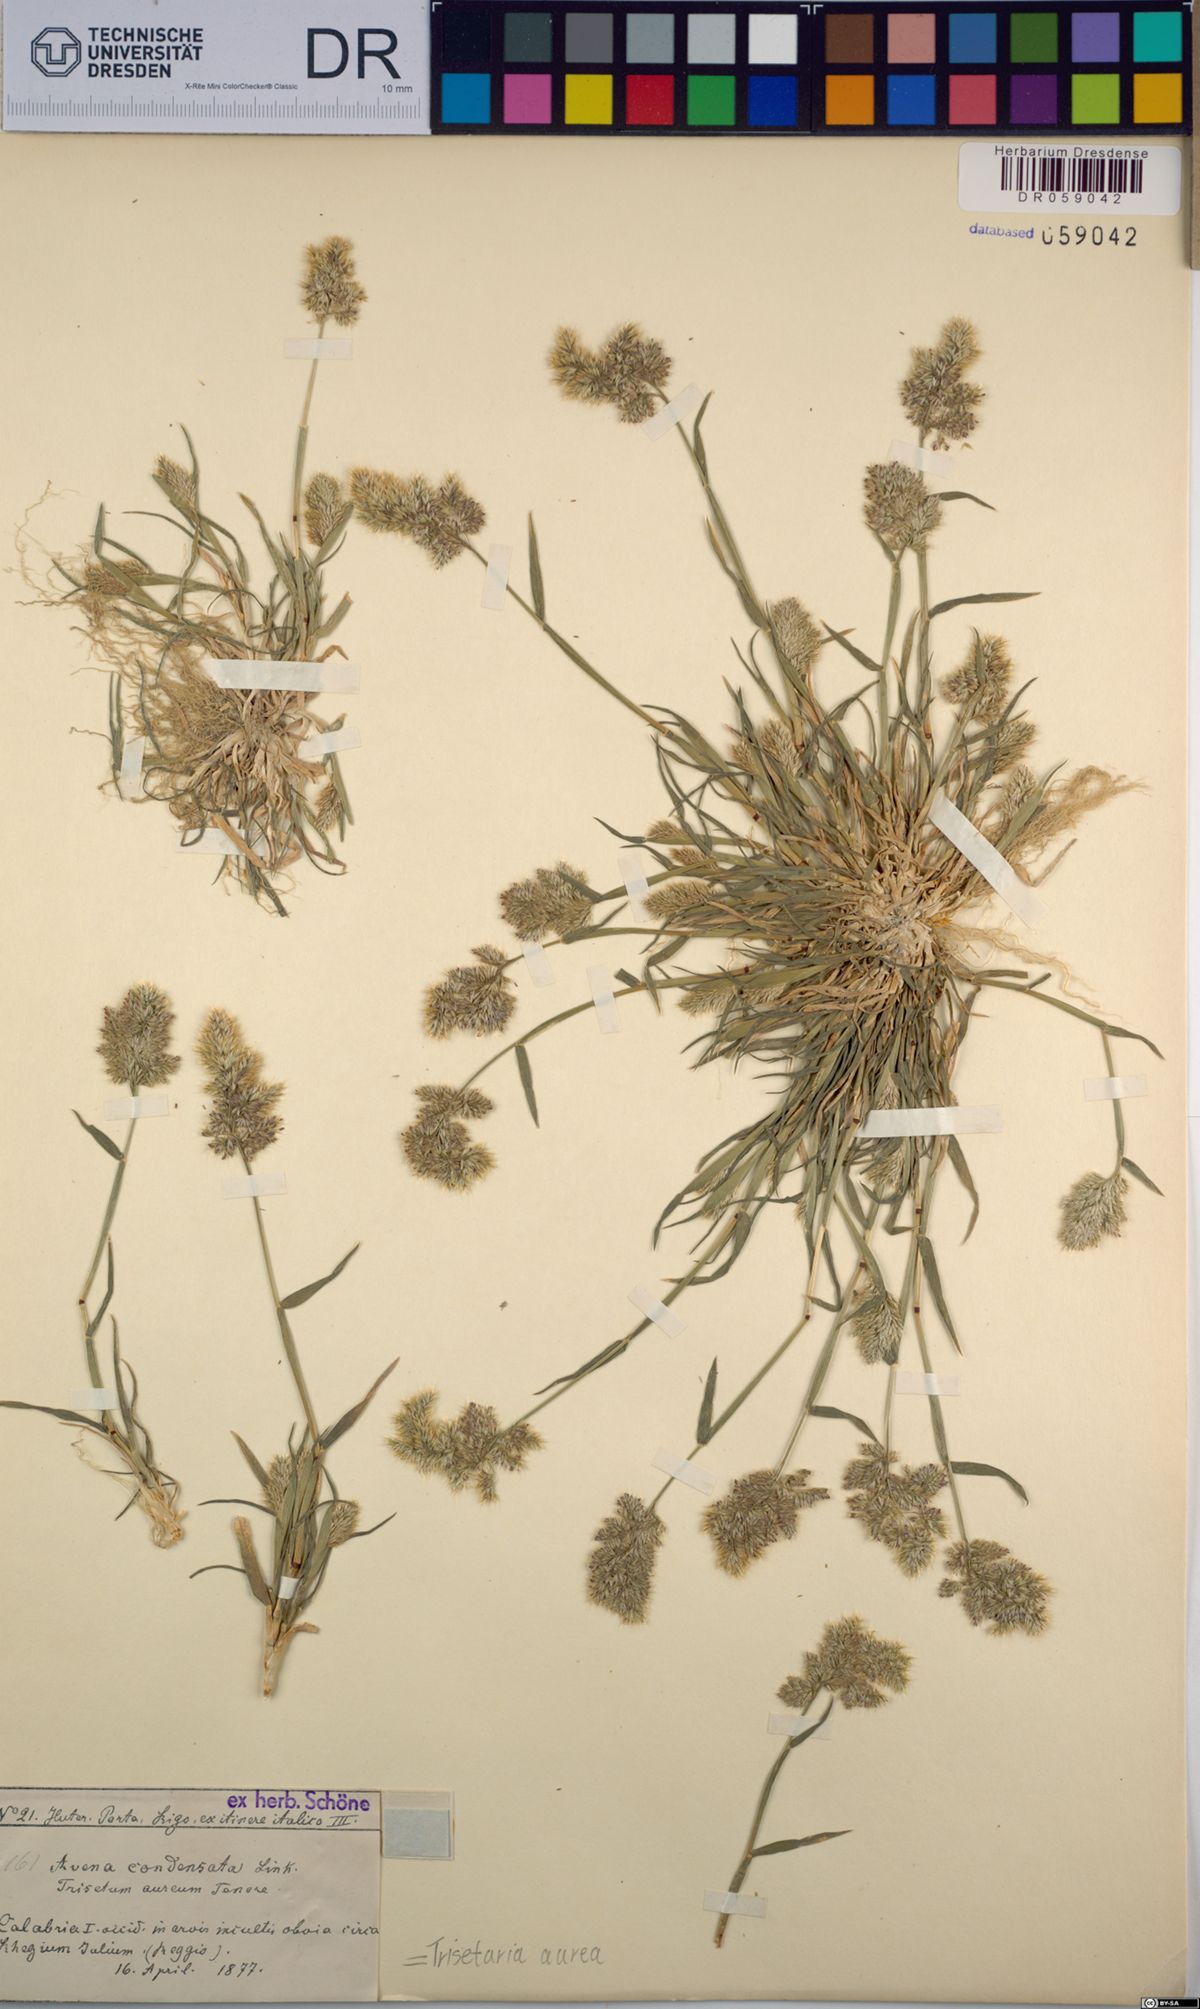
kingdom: Plantae
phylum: Tracheophyta
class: Liliopsida
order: Poales
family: Poaceae
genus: Trisetaria
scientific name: Trisetaria aurea
